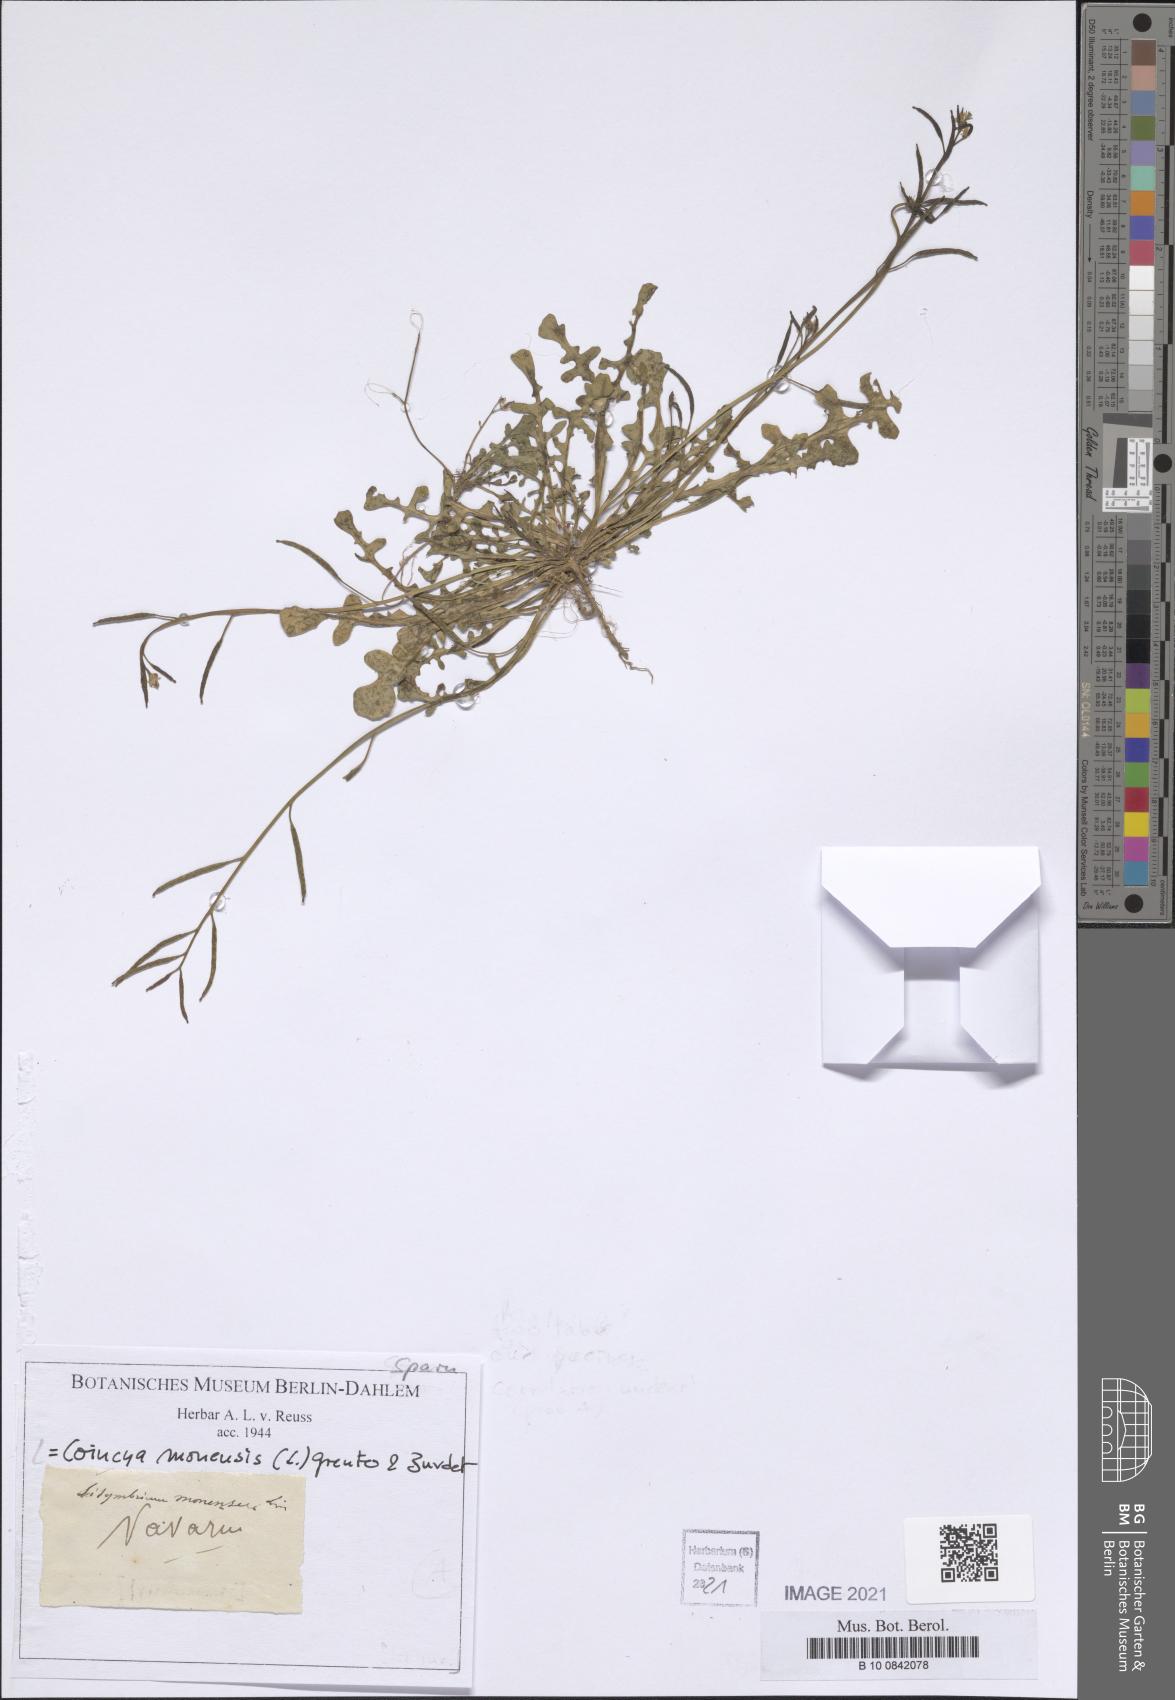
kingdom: Plantae
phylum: Tracheophyta
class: Magnoliopsida
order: Brassicales
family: Brassicaceae
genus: Coincya
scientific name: Coincya monensis
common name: Star-mustard
